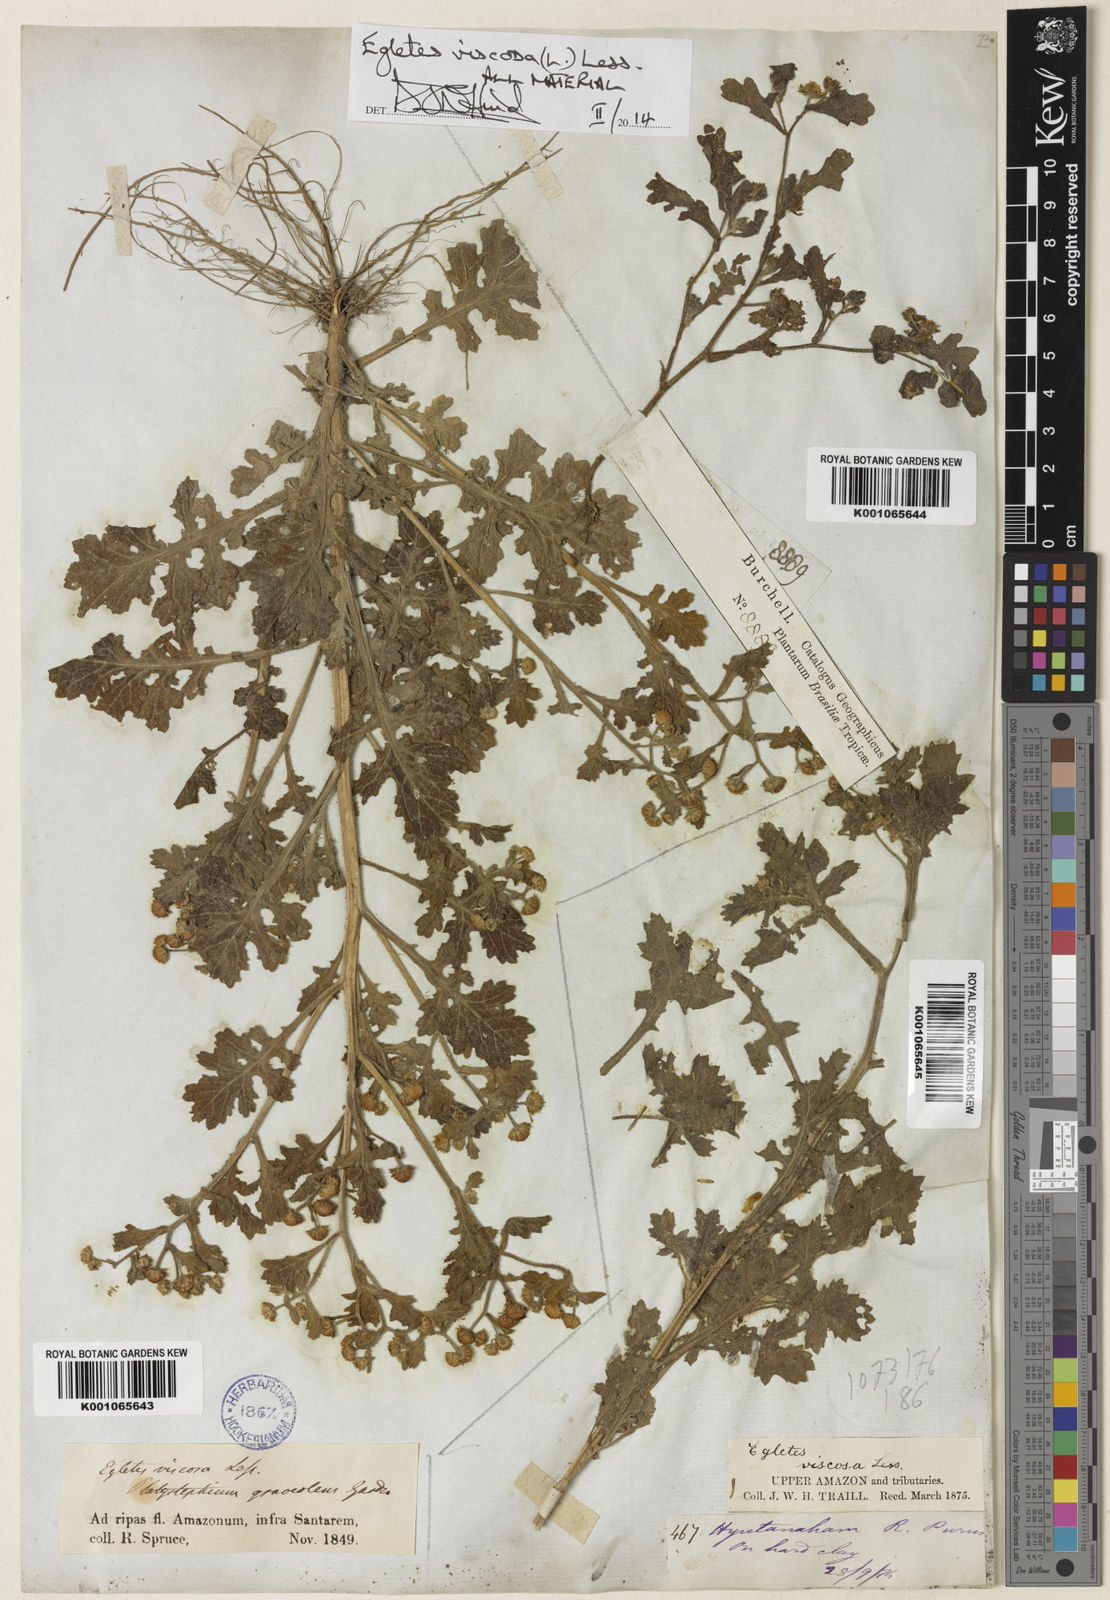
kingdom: Plantae
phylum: Tracheophyta
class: Magnoliopsida
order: Asterales
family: Asteraceae
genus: Egletes
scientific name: Egletes viscosa
